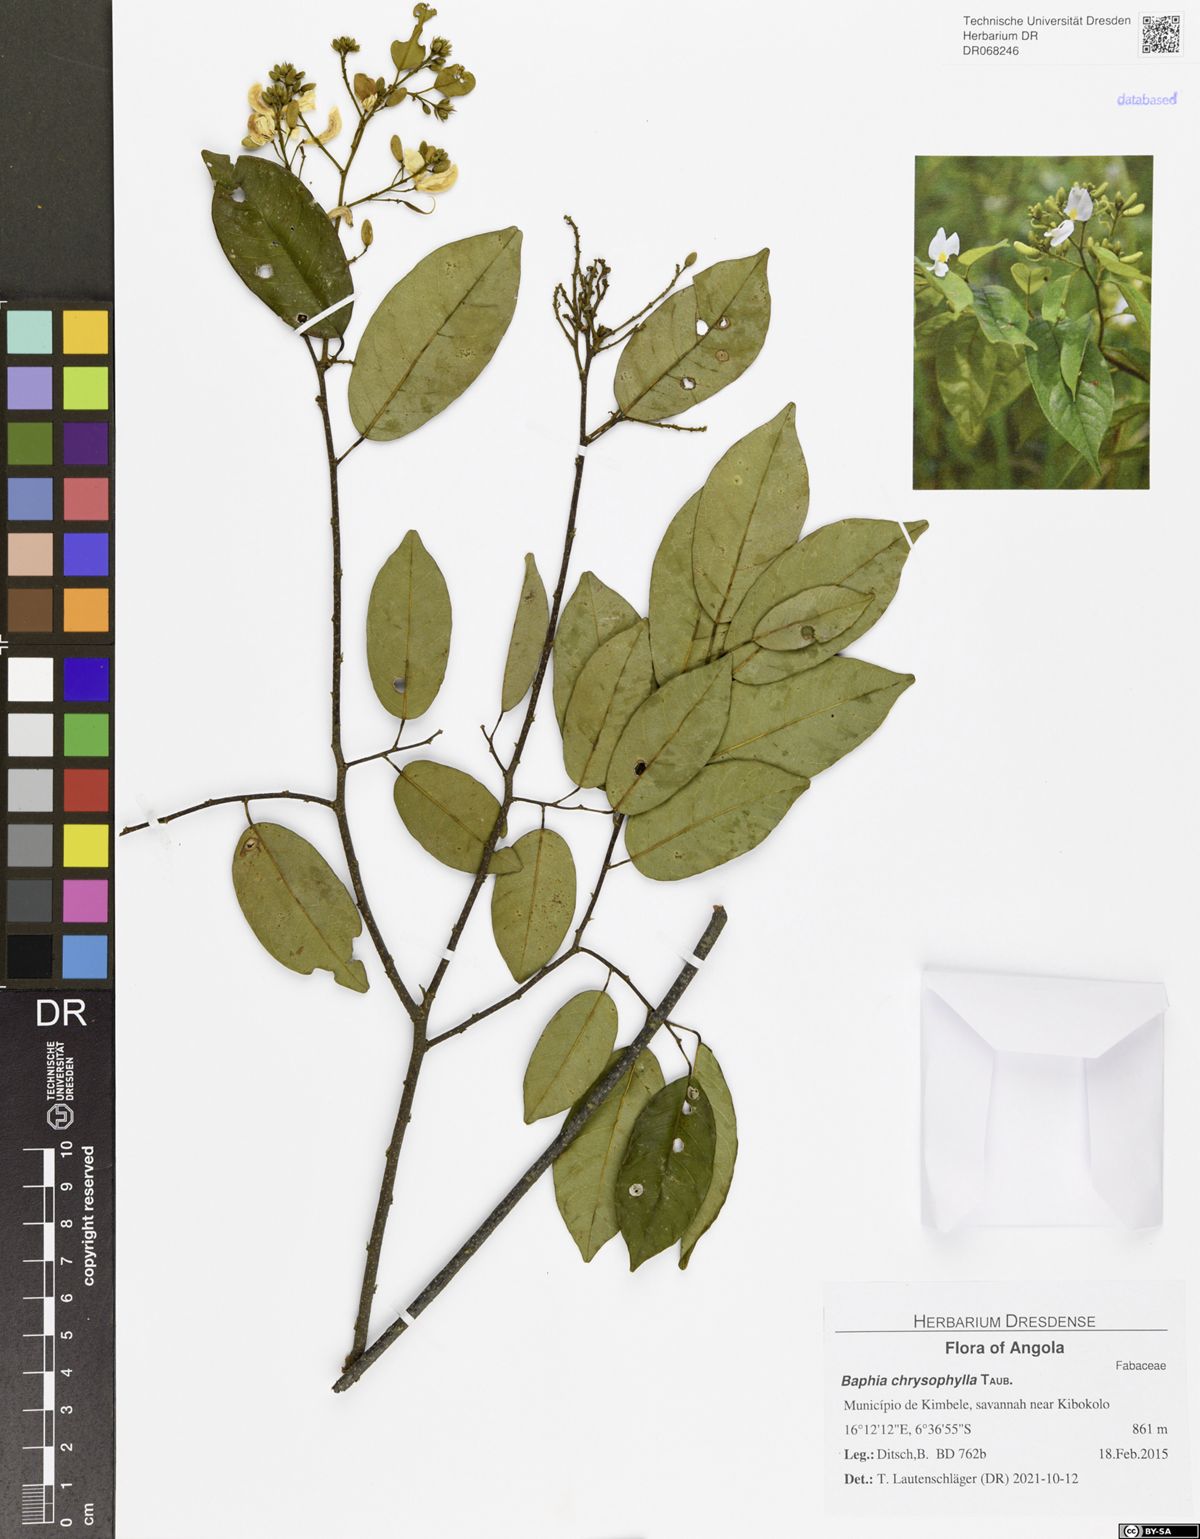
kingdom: Plantae
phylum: Tracheophyta
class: Magnoliopsida
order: Fabales
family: Fabaceae
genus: Baphia
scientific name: Baphia chrysophylla
